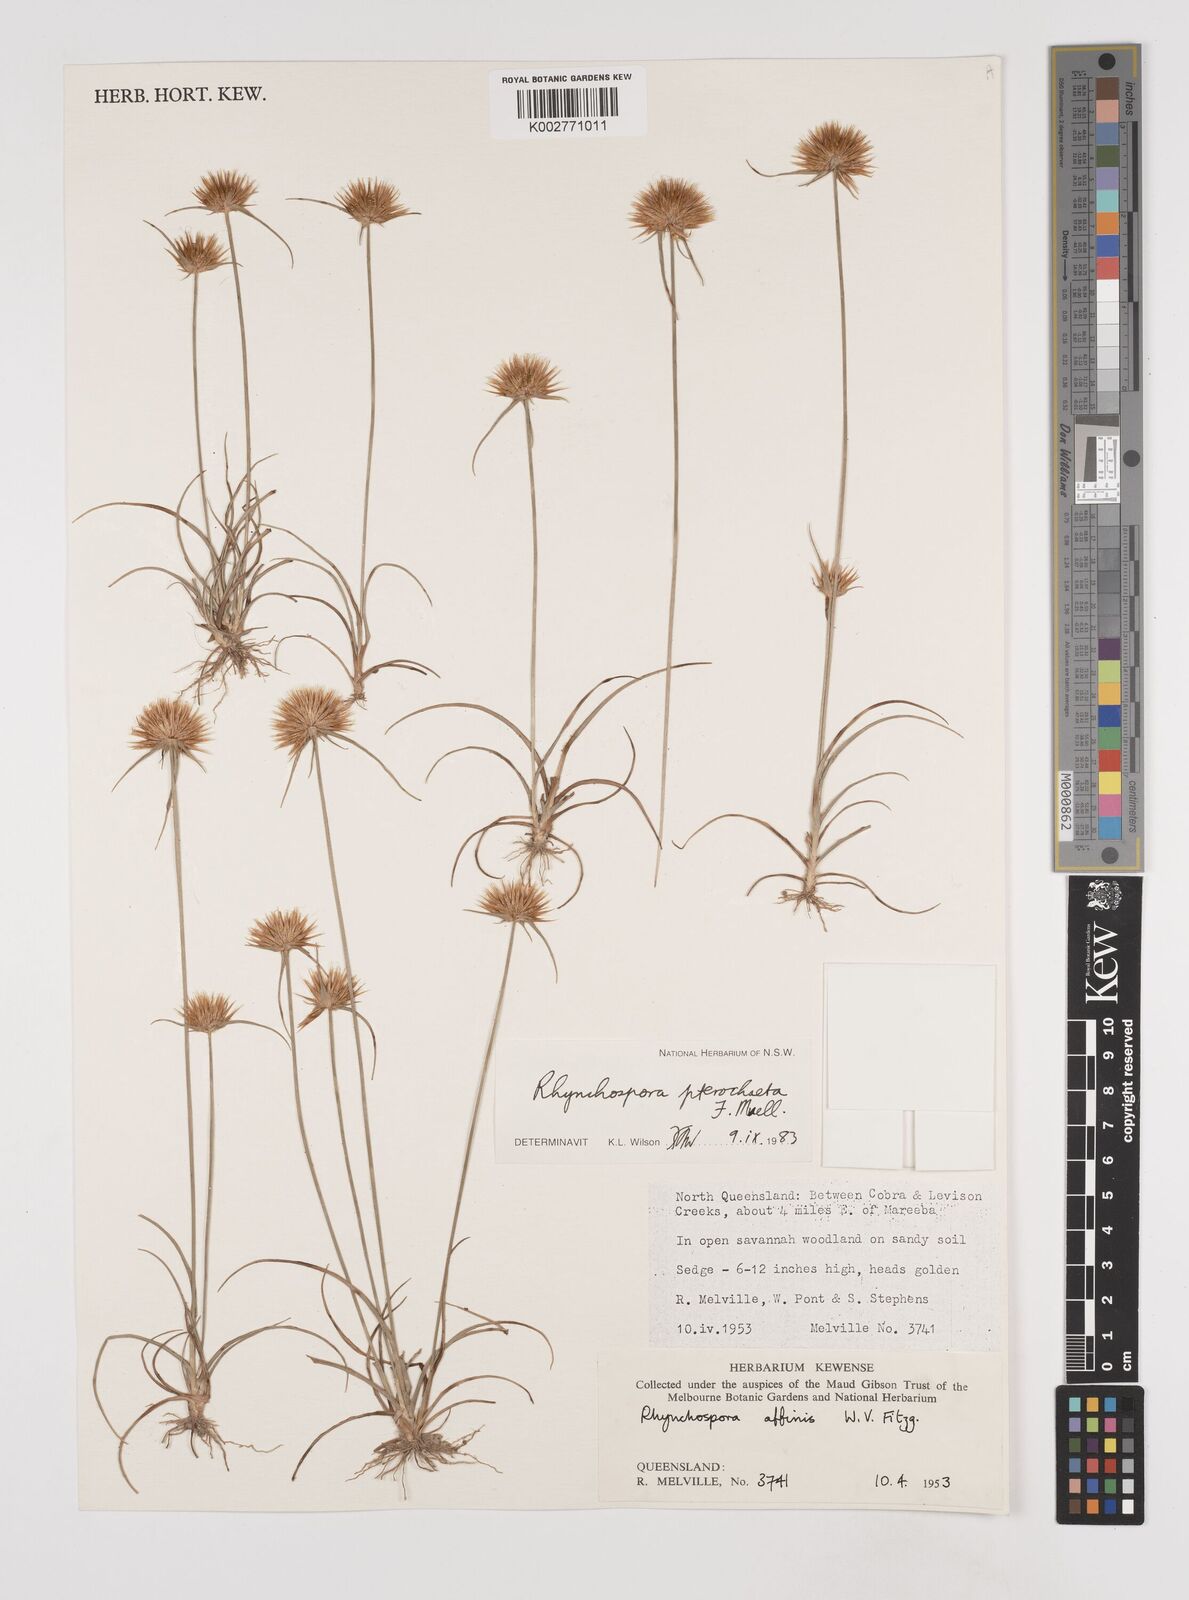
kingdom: Plantae
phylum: Tracheophyta
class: Liliopsida
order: Poales
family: Cyperaceae
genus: Rhynchospora
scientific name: Rhynchospora pterochaeta
